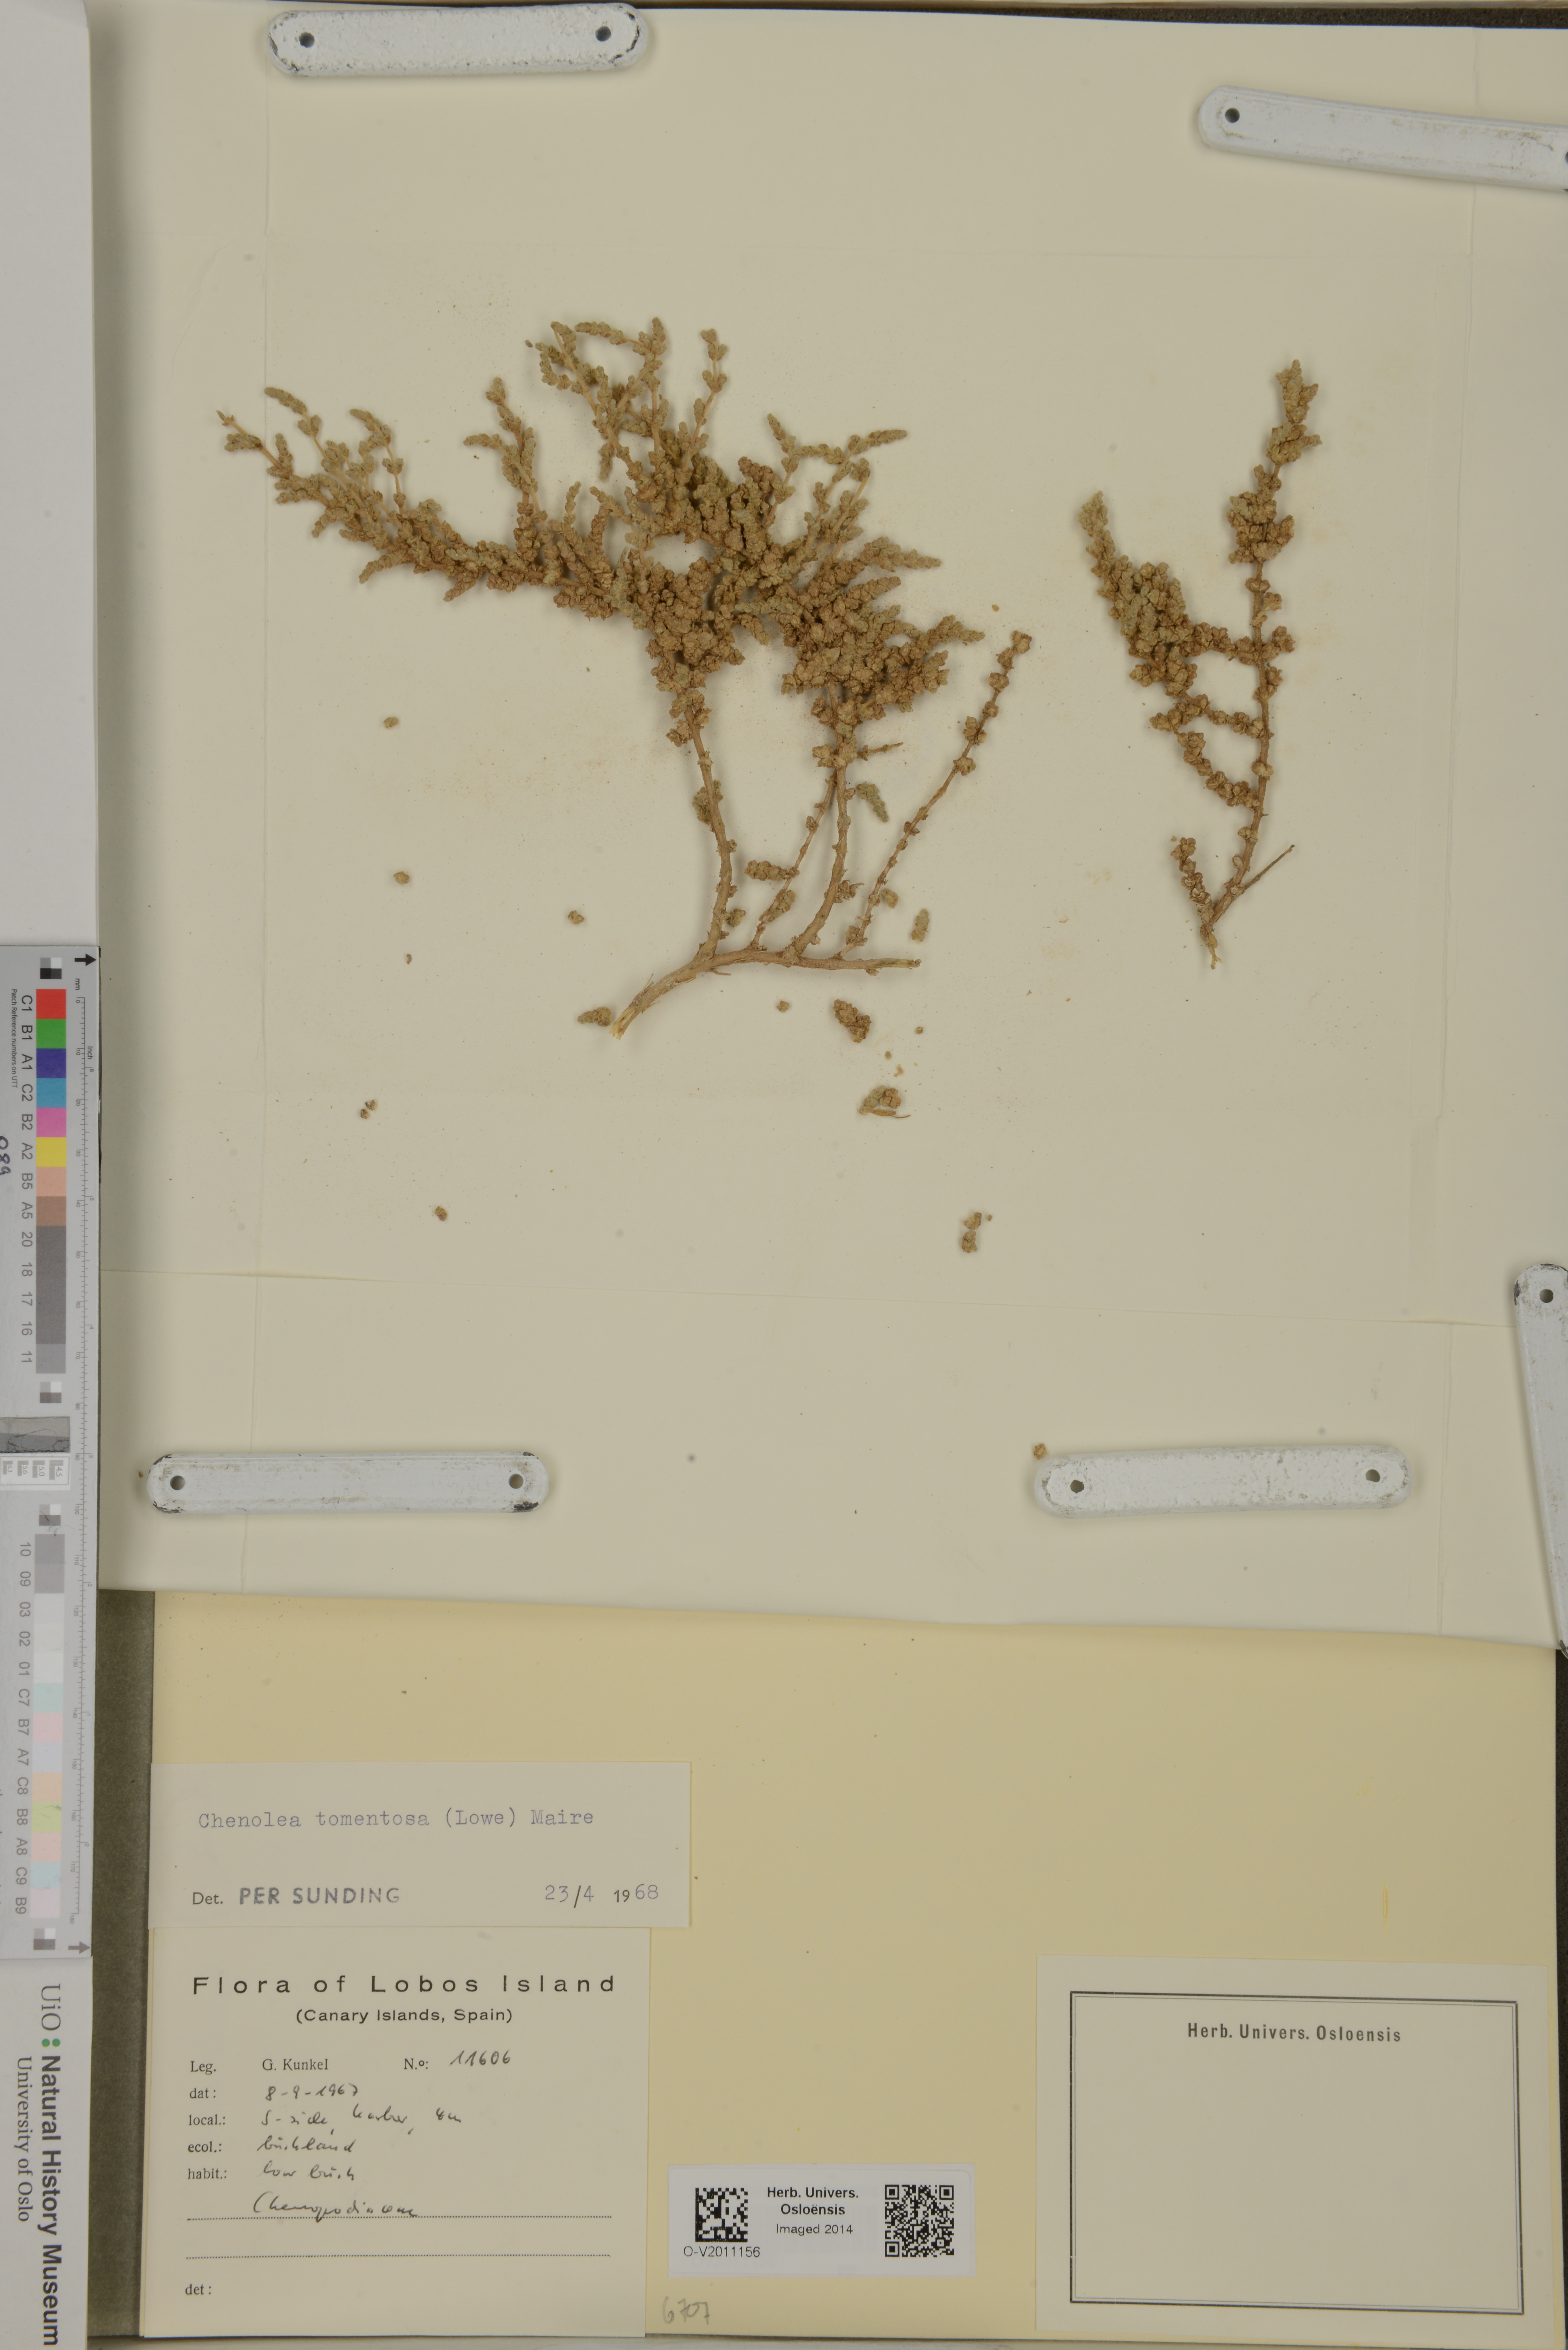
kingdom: Plantae
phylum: Tracheophyta
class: Magnoliopsida
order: Caryophyllales
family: Amaranthaceae
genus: Bassia
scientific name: Bassia tomentosa
